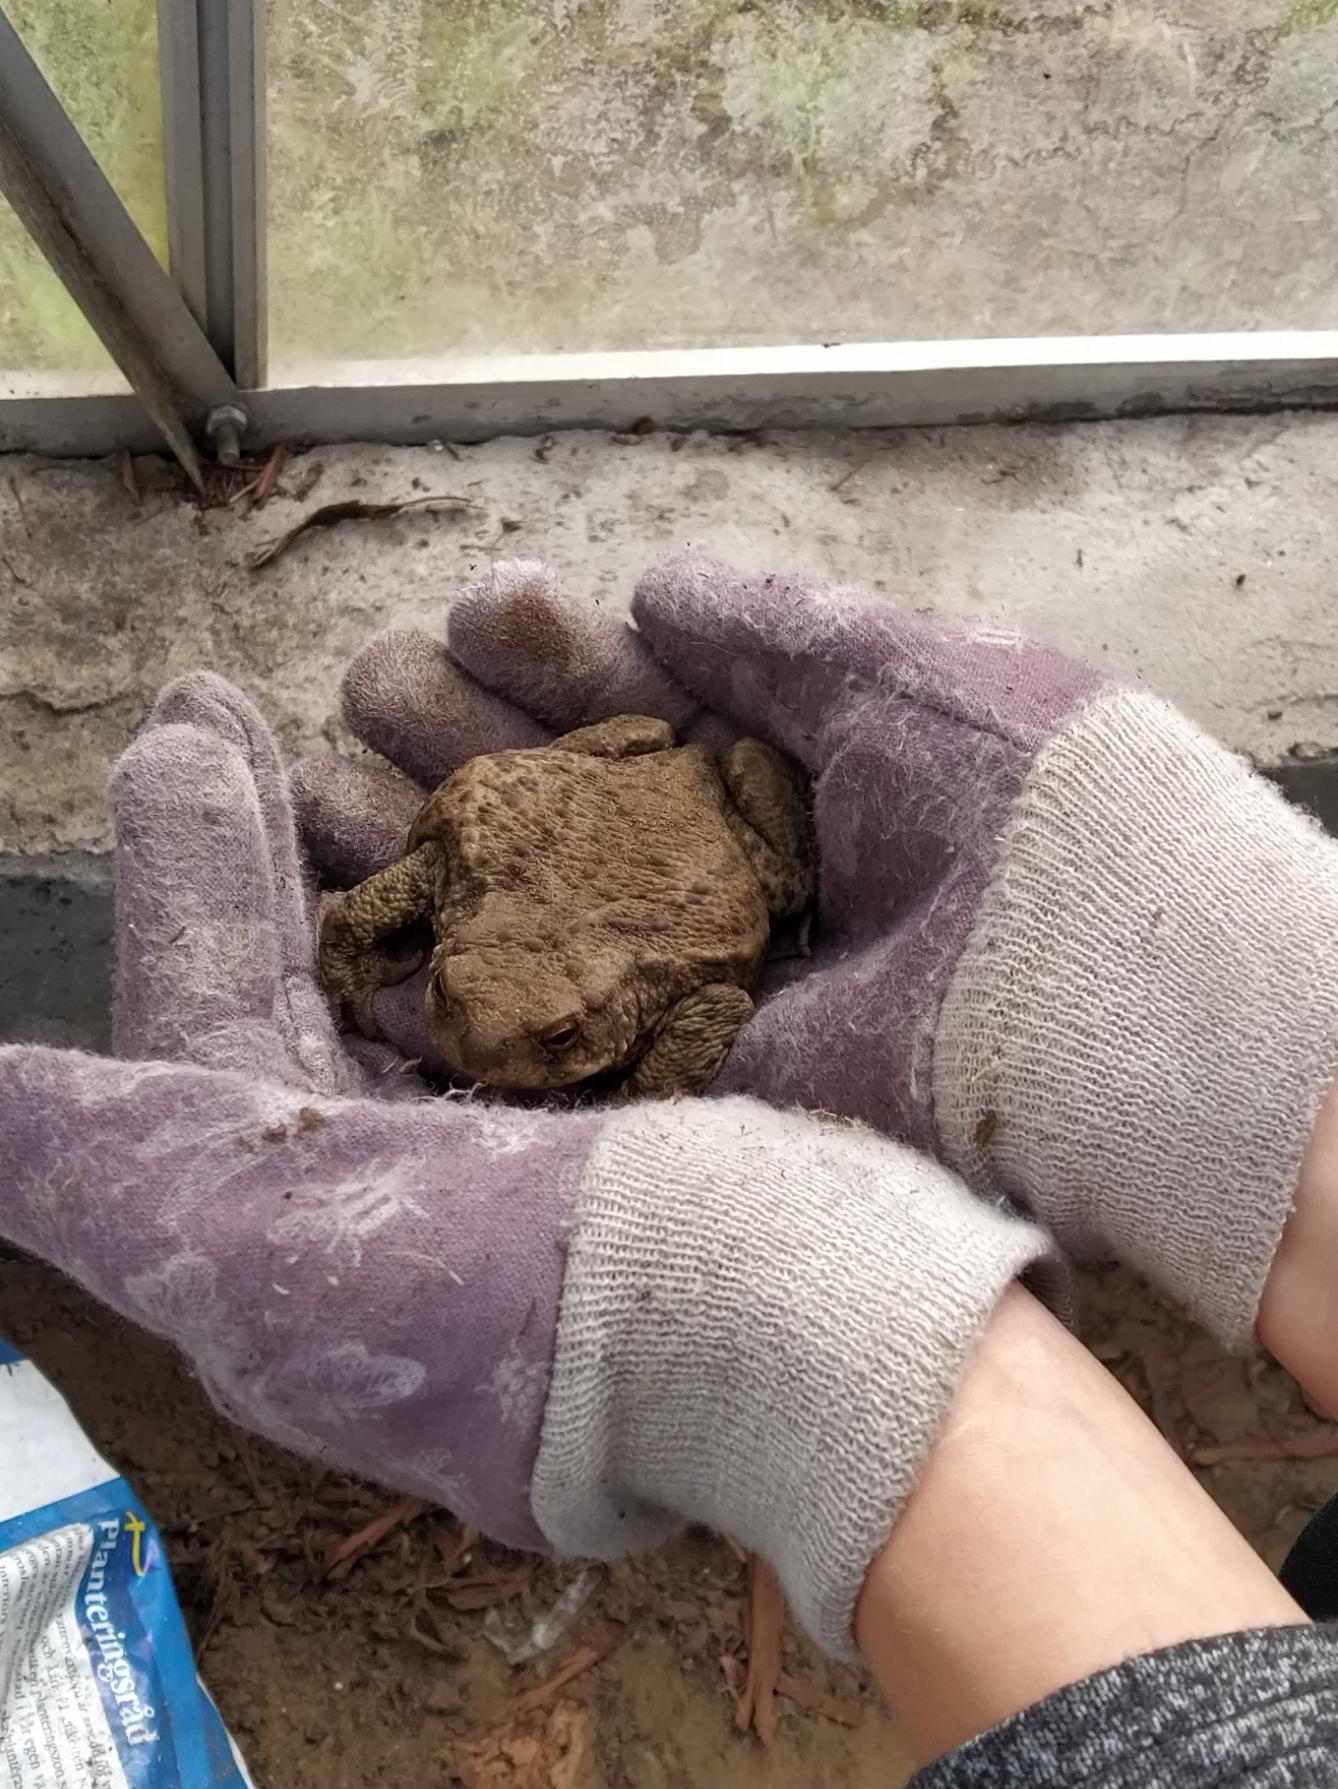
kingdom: Animalia
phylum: Chordata
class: Amphibia
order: Anura
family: Bufonidae
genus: Bufo
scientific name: Bufo bufo
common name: Skrubtudse
